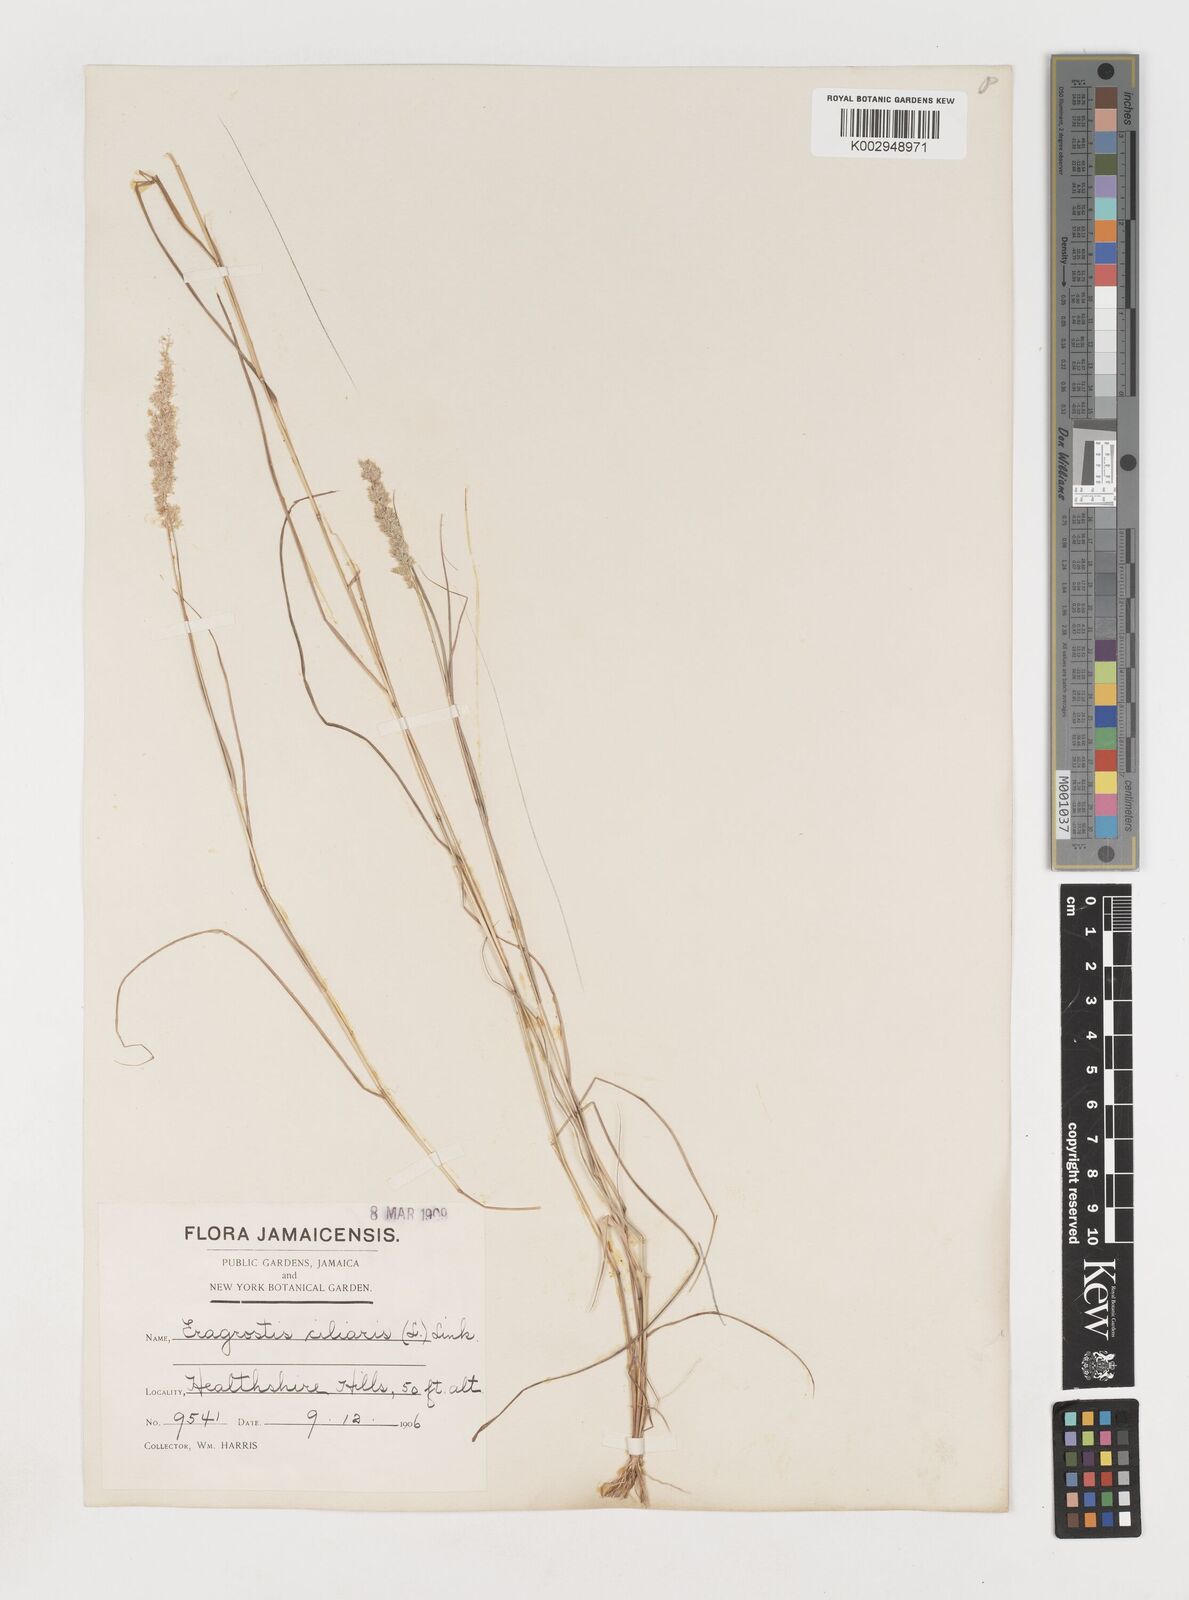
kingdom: Plantae
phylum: Tracheophyta
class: Liliopsida
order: Poales
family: Poaceae
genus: Eragrostis
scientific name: Eragrostis ciliaris
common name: Gophertail lovegrass
